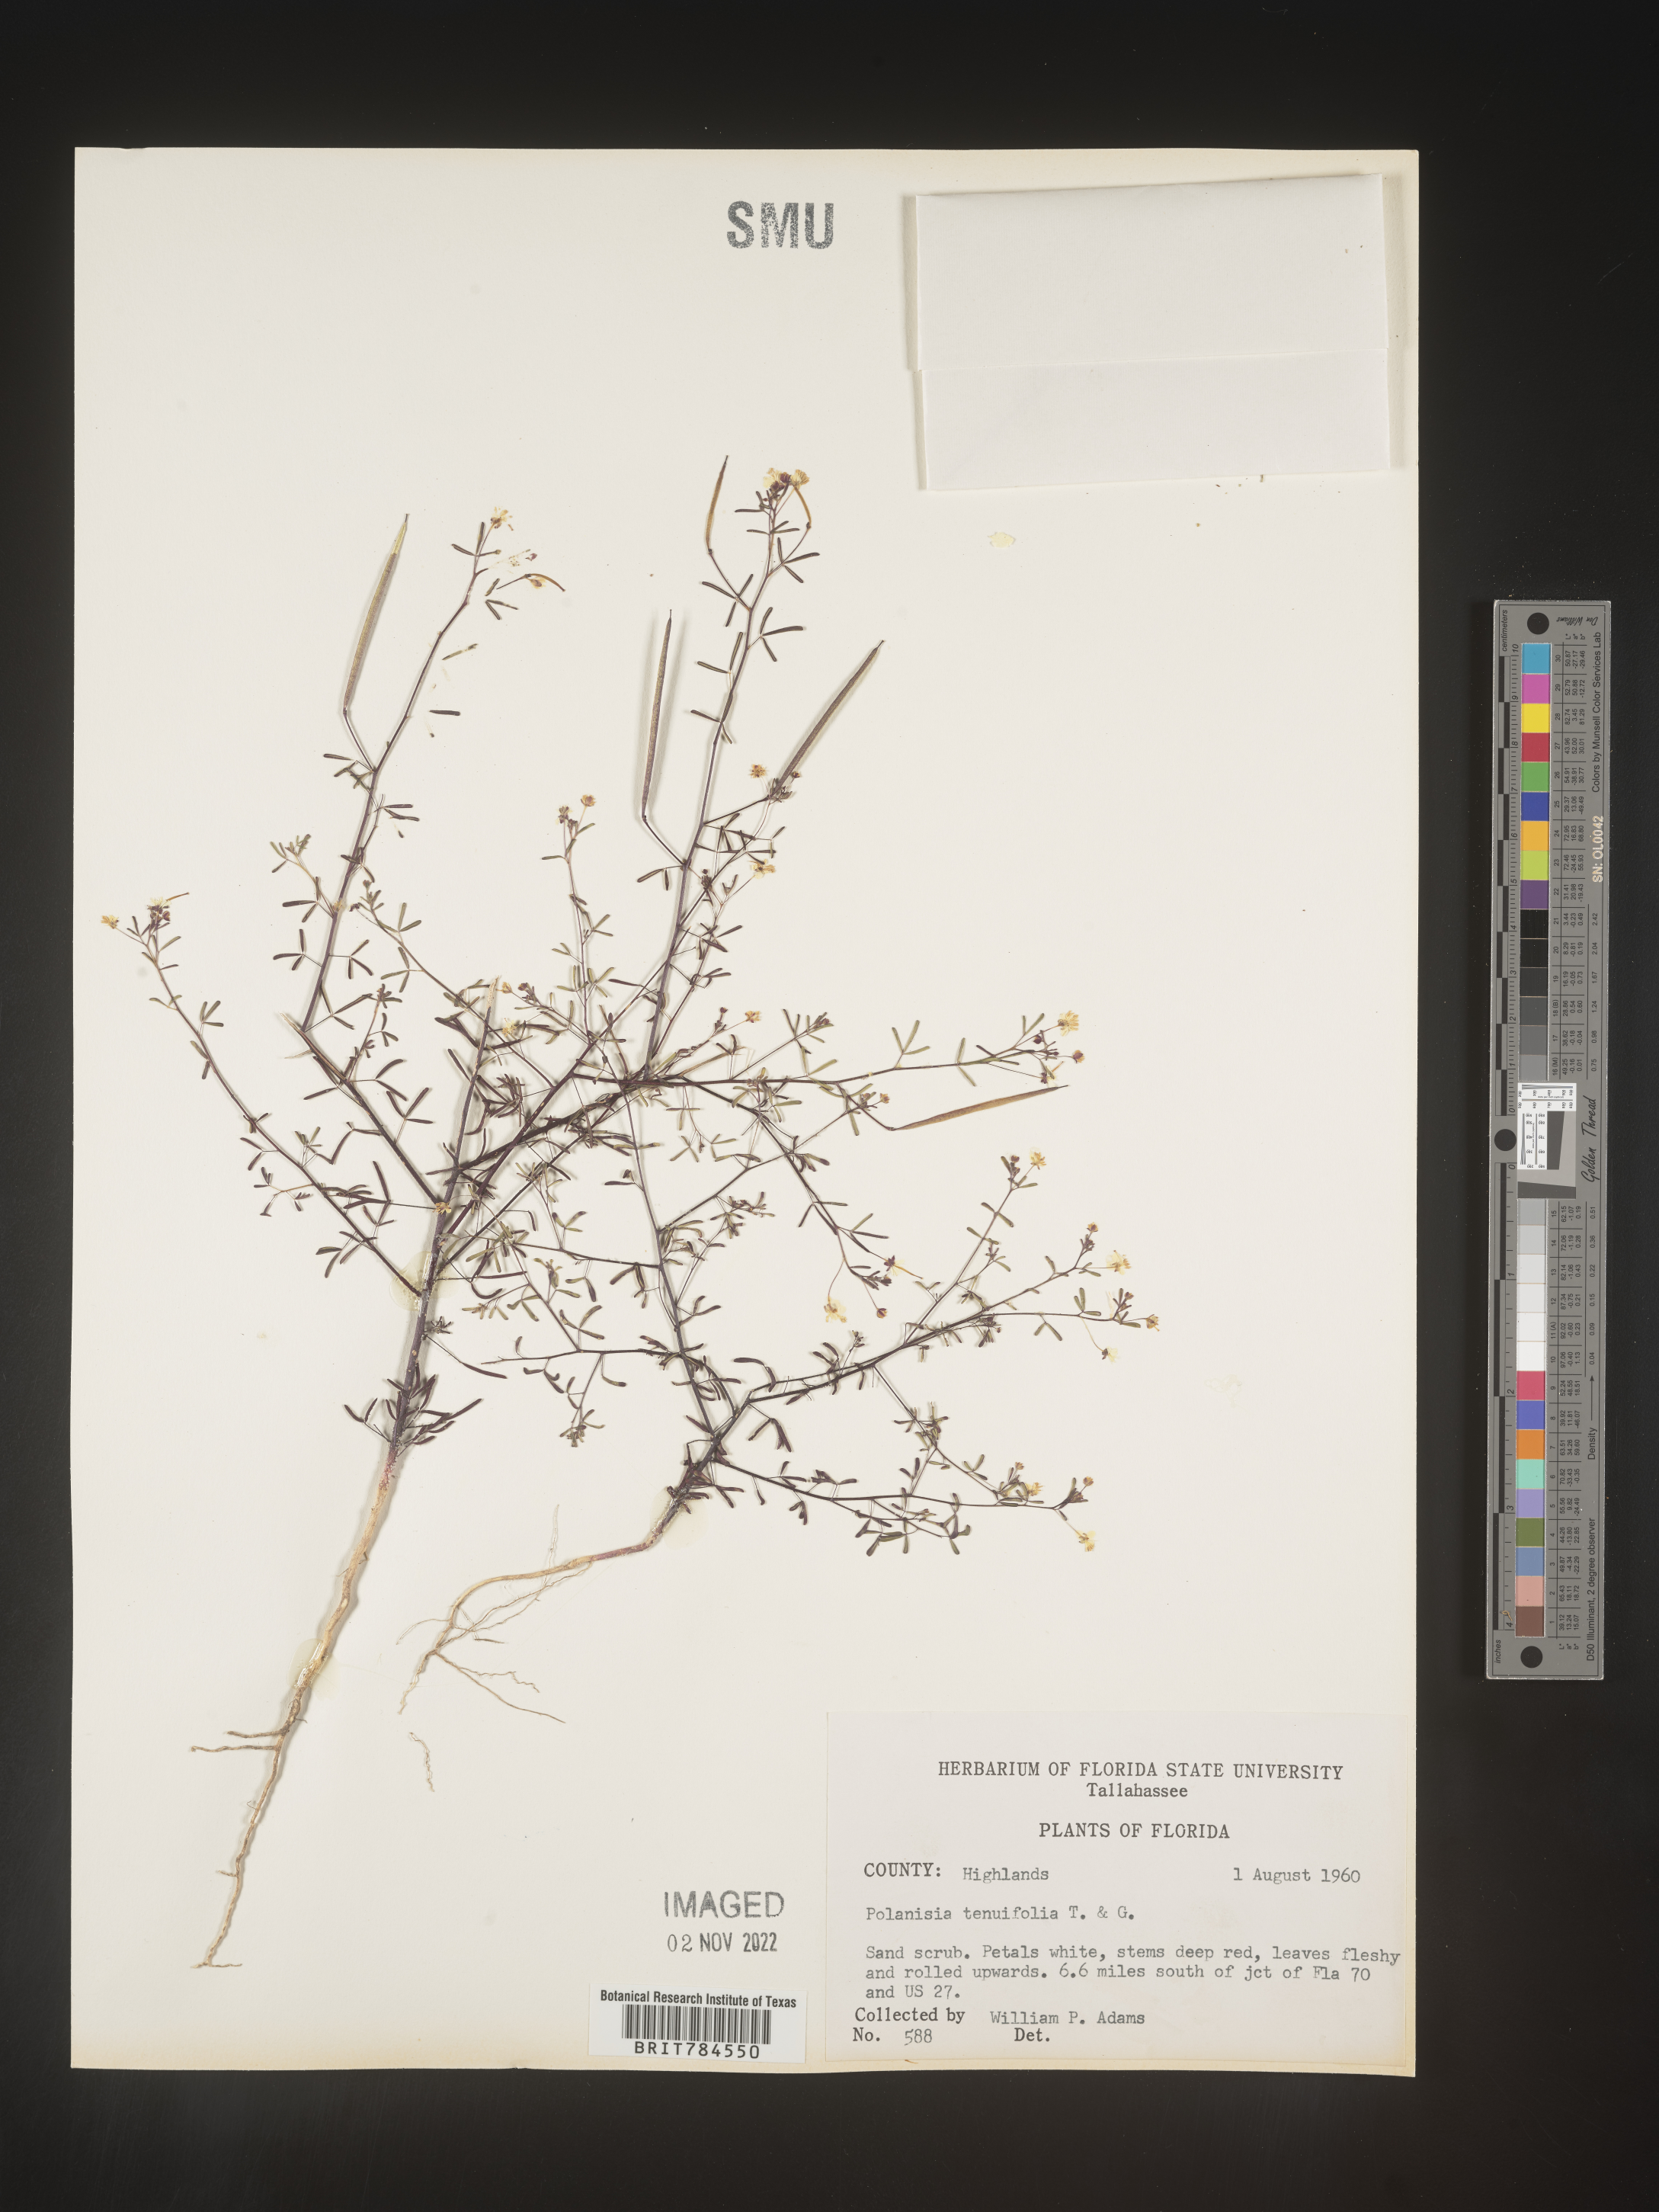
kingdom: Plantae
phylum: Tracheophyta
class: Magnoliopsida
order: Brassicales
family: Cleomaceae
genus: Polanisia
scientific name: Polanisia
